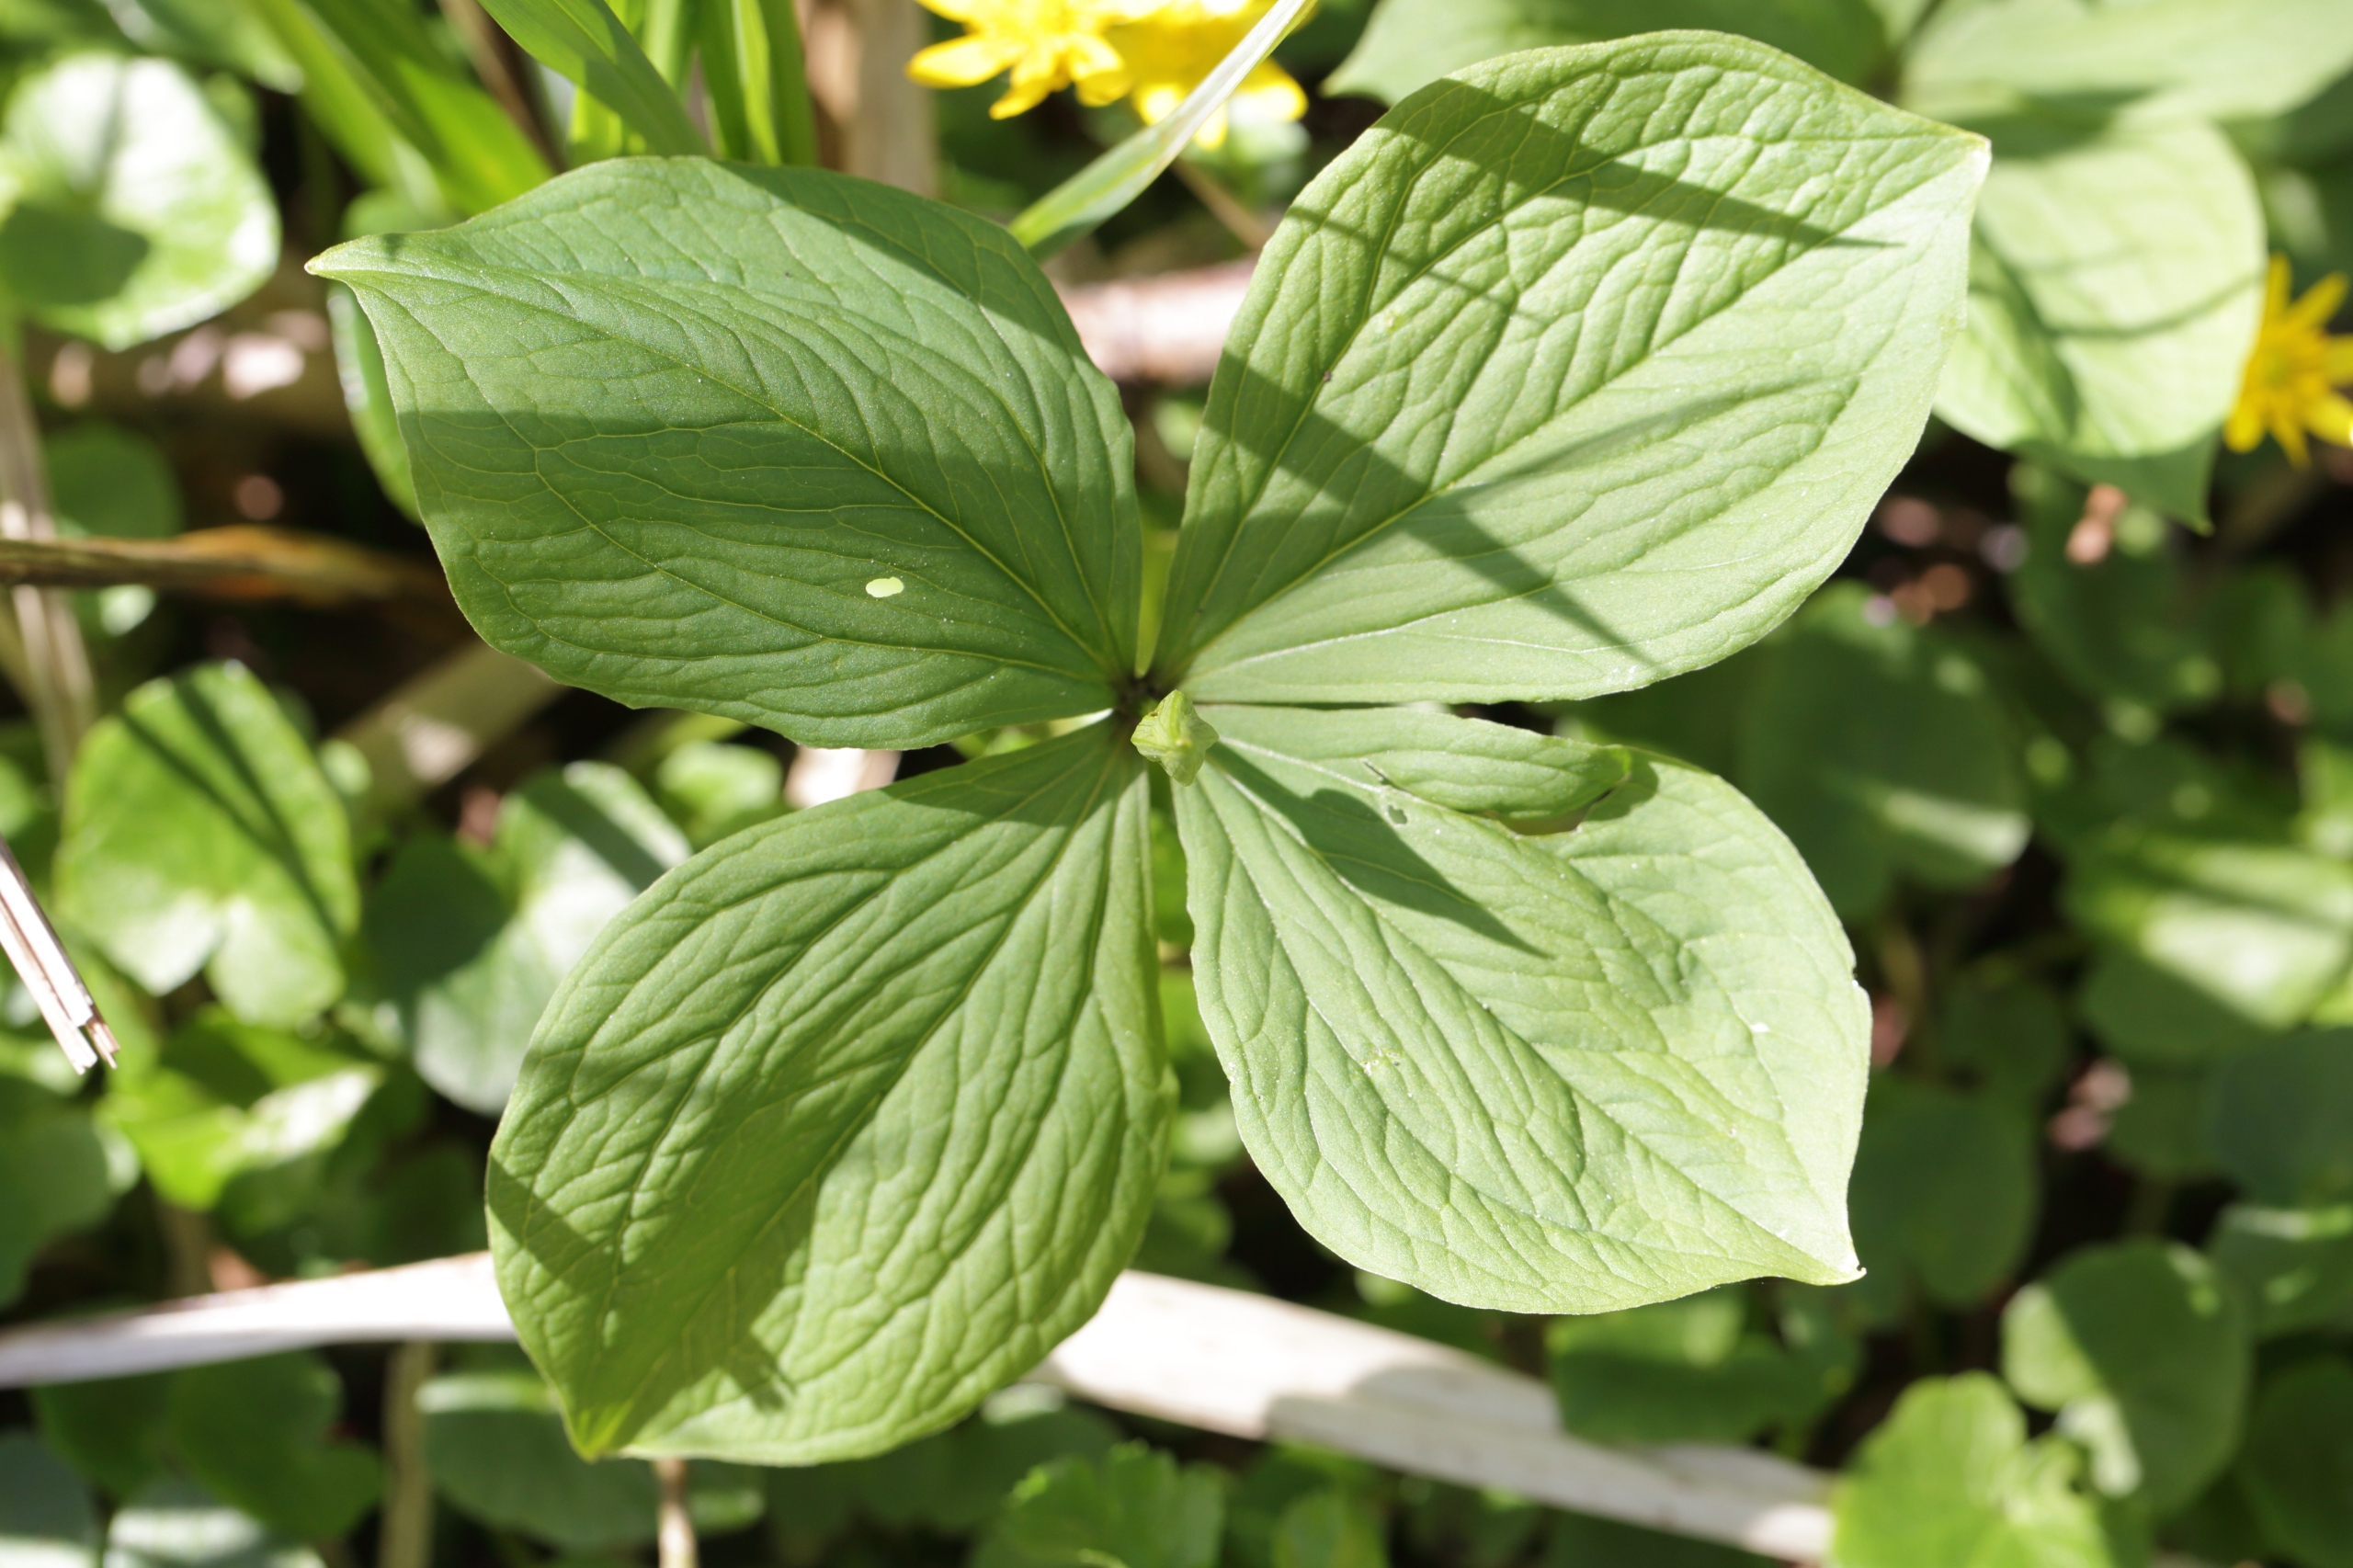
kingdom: Plantae
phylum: Tracheophyta
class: Liliopsida
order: Liliales
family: Melanthiaceae
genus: Paris
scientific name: Paris quadrifolia
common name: Firblad
